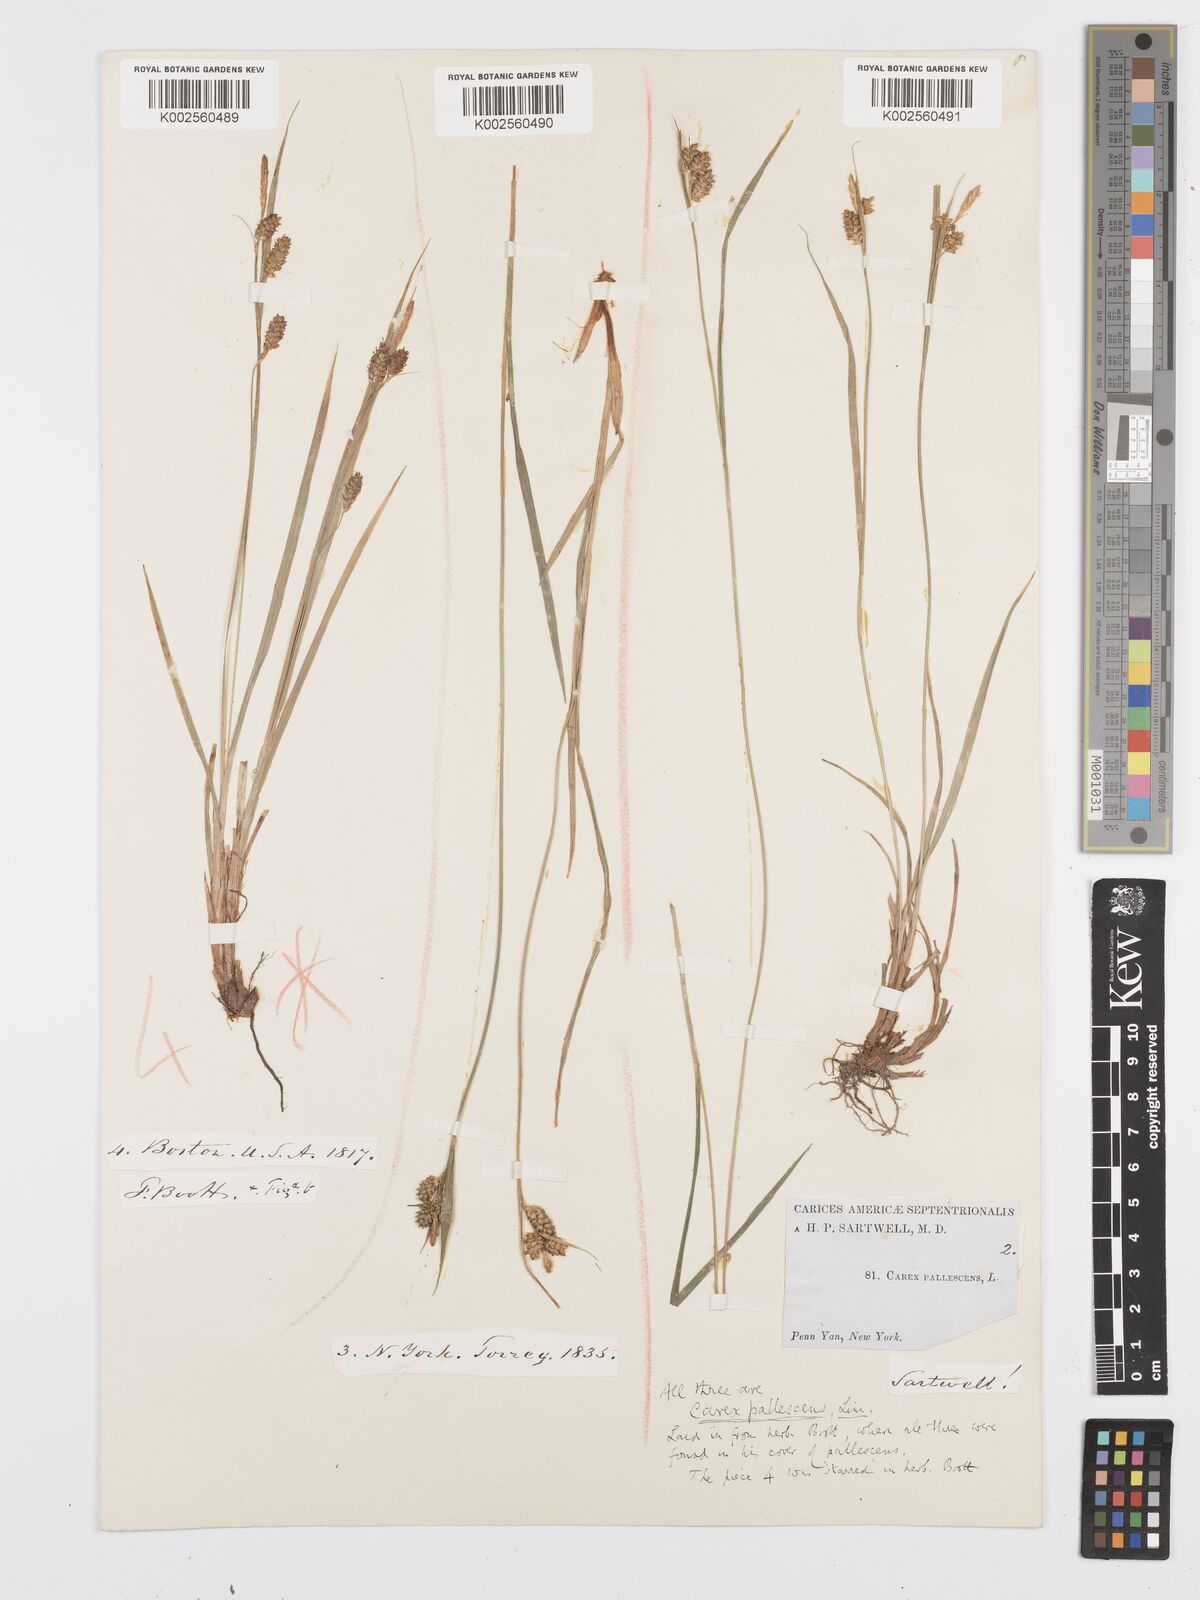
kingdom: Plantae
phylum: Tracheophyta
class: Liliopsida
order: Poales
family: Cyperaceae
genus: Carex
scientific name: Carex pallescens
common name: Pale sedge
